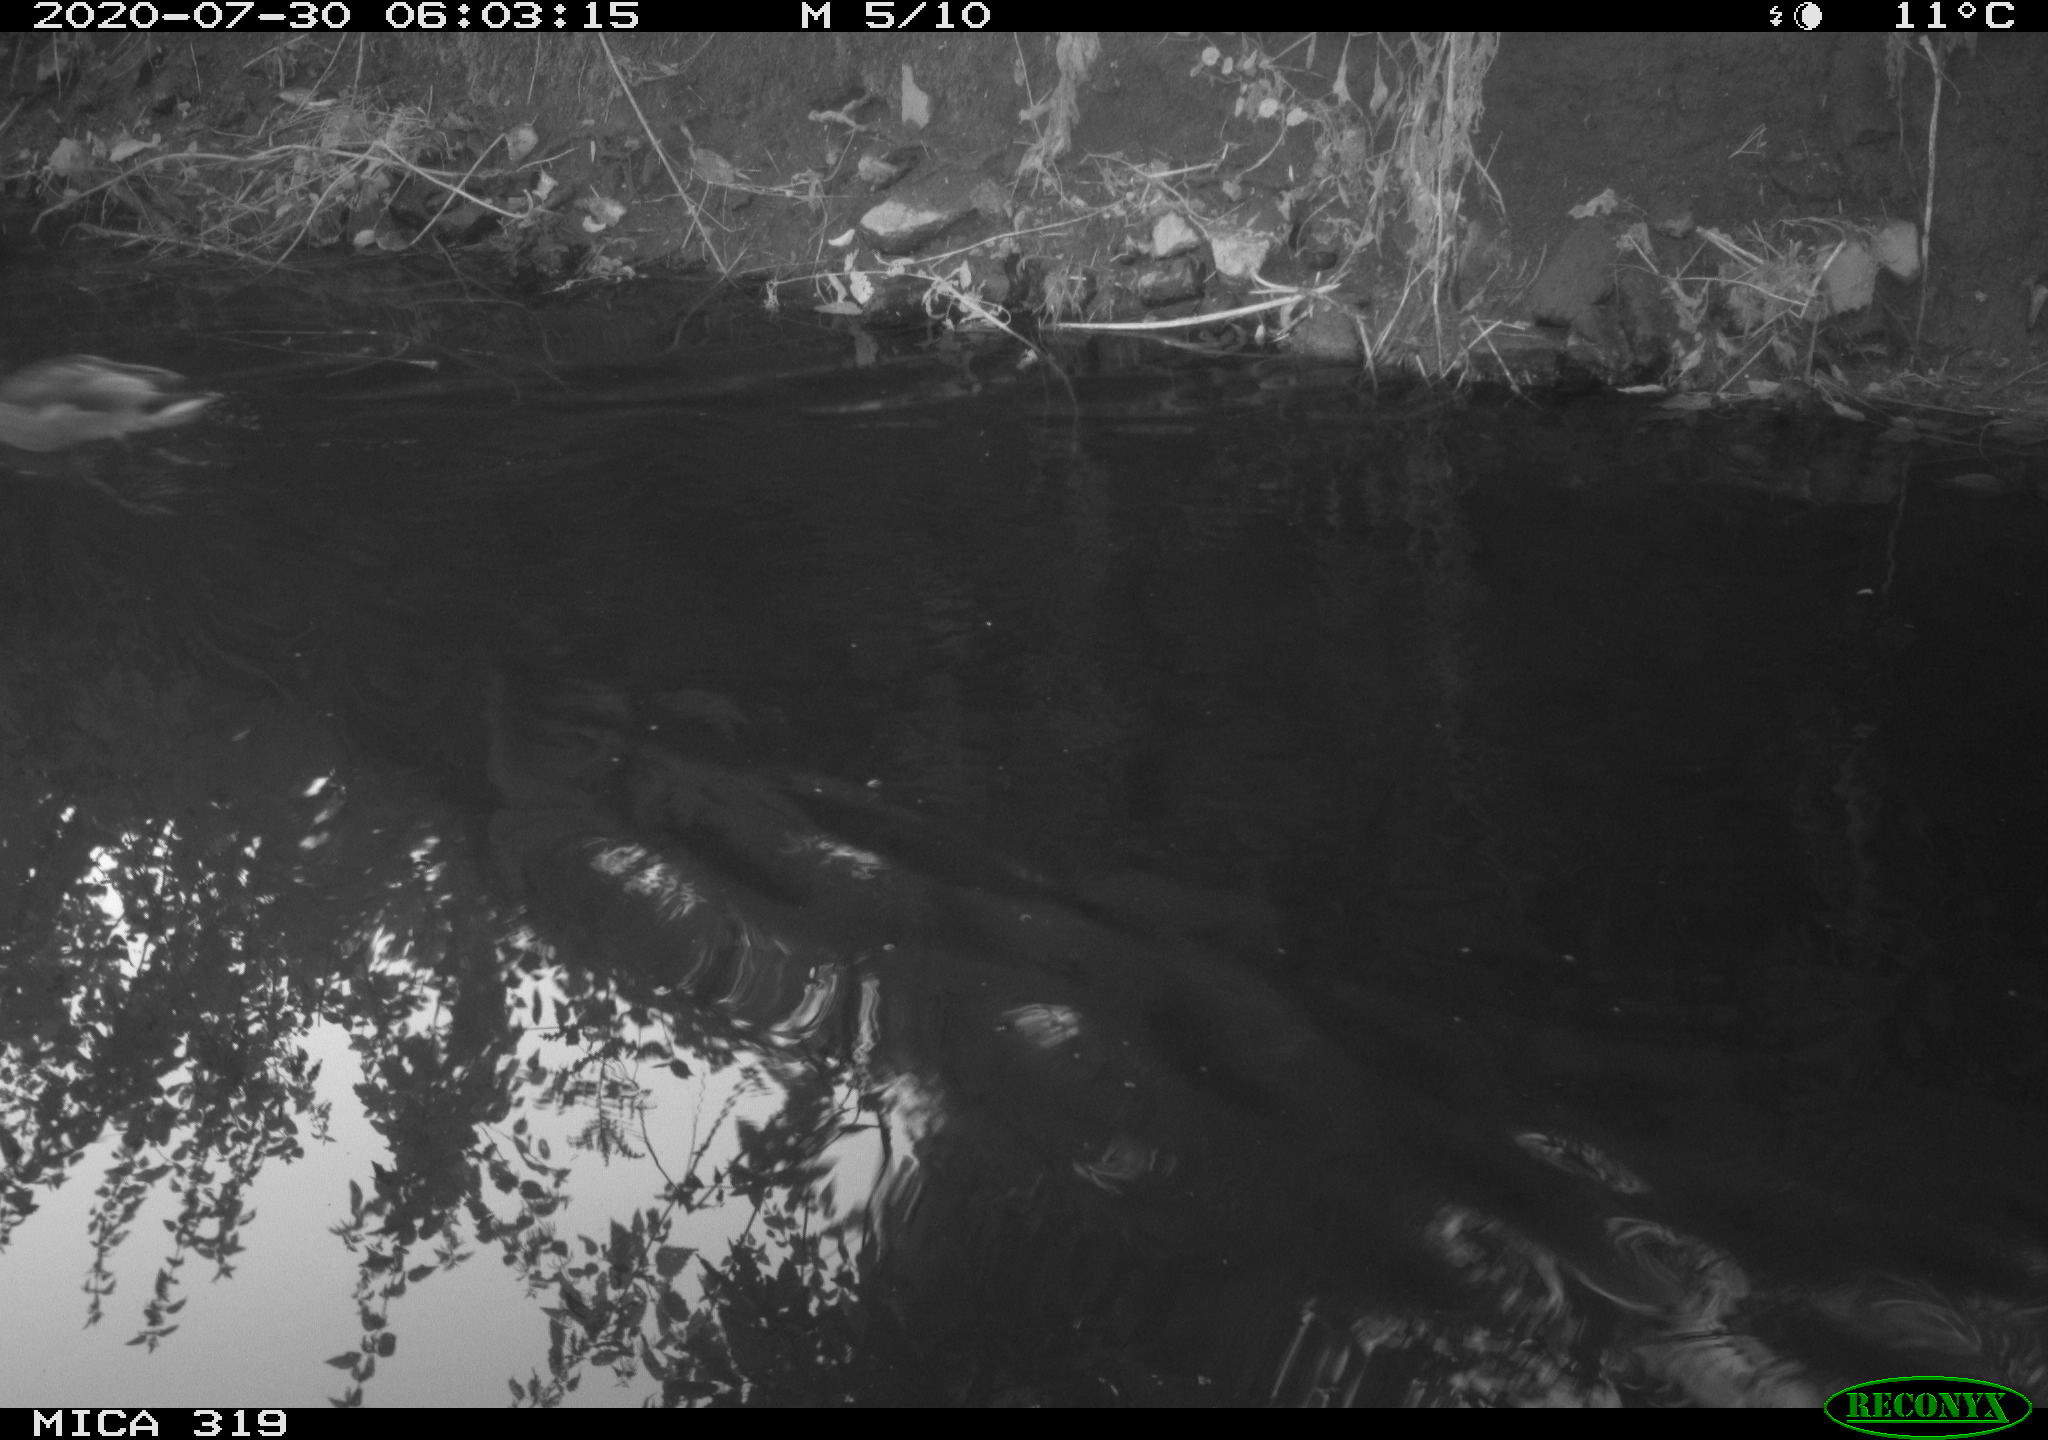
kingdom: Animalia
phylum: Chordata
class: Aves
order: Anseriformes
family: Anatidae
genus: Anas
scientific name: Anas platyrhynchos
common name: Mallard
